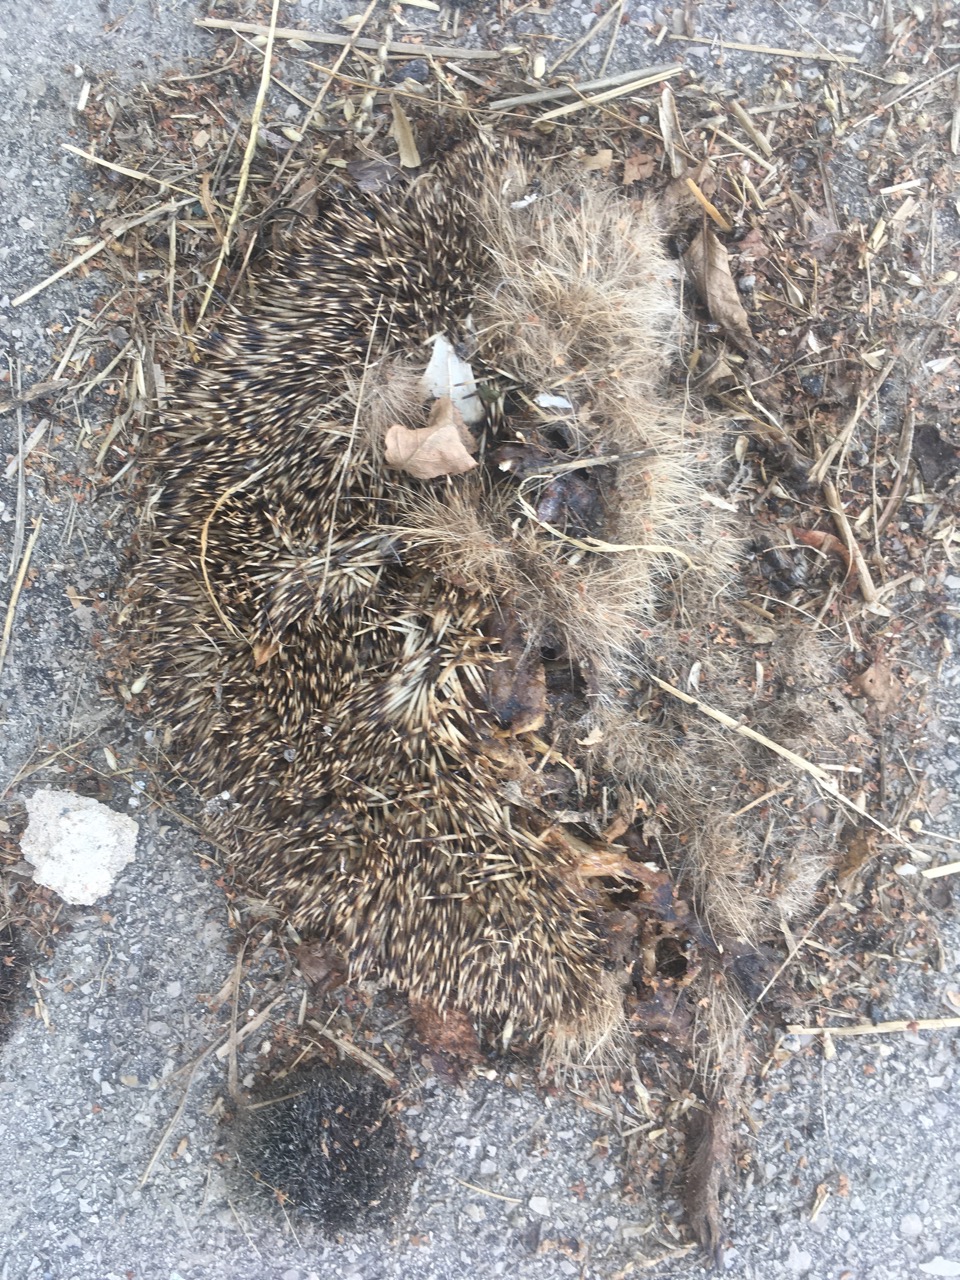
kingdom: Animalia
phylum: Chordata
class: Mammalia
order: Erinaceomorpha
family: Erinaceidae
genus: Erinaceus
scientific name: Erinaceus
